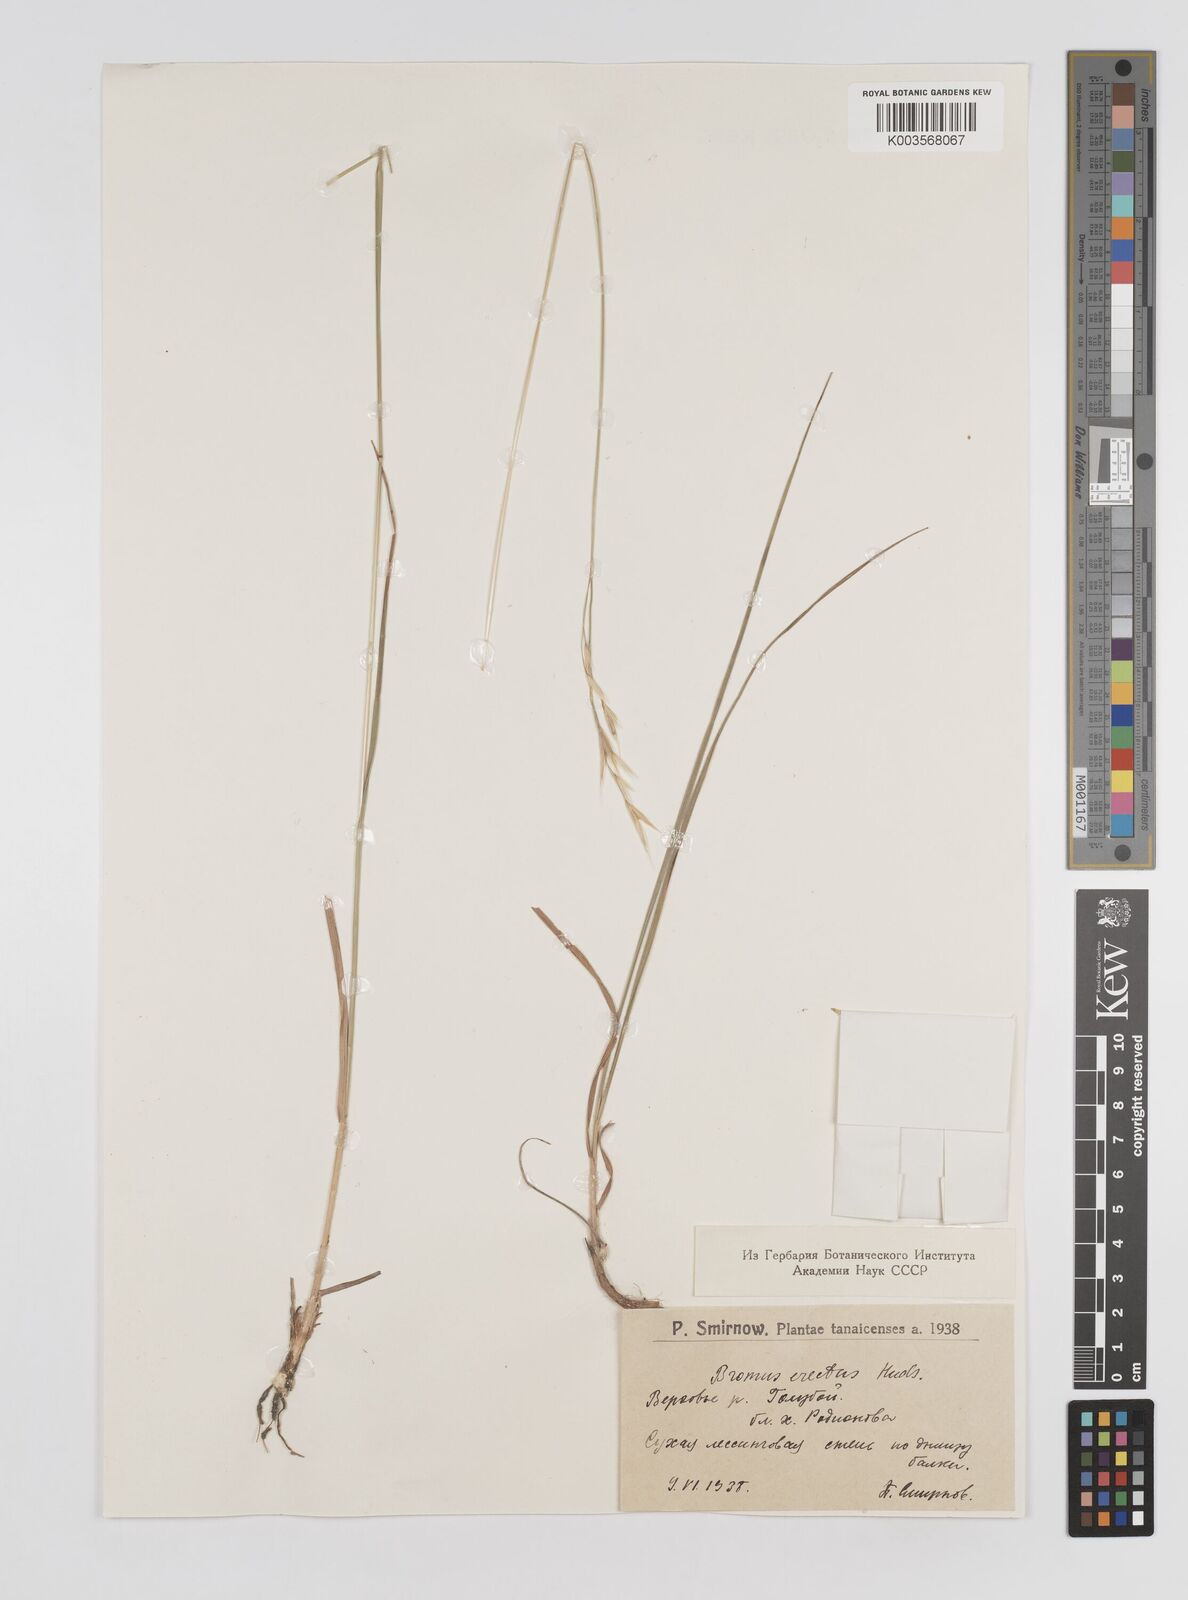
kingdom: Plantae
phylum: Tracheophyta
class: Liliopsida
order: Poales
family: Poaceae
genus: Bromus
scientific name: Bromus erectus
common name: Erect brome
